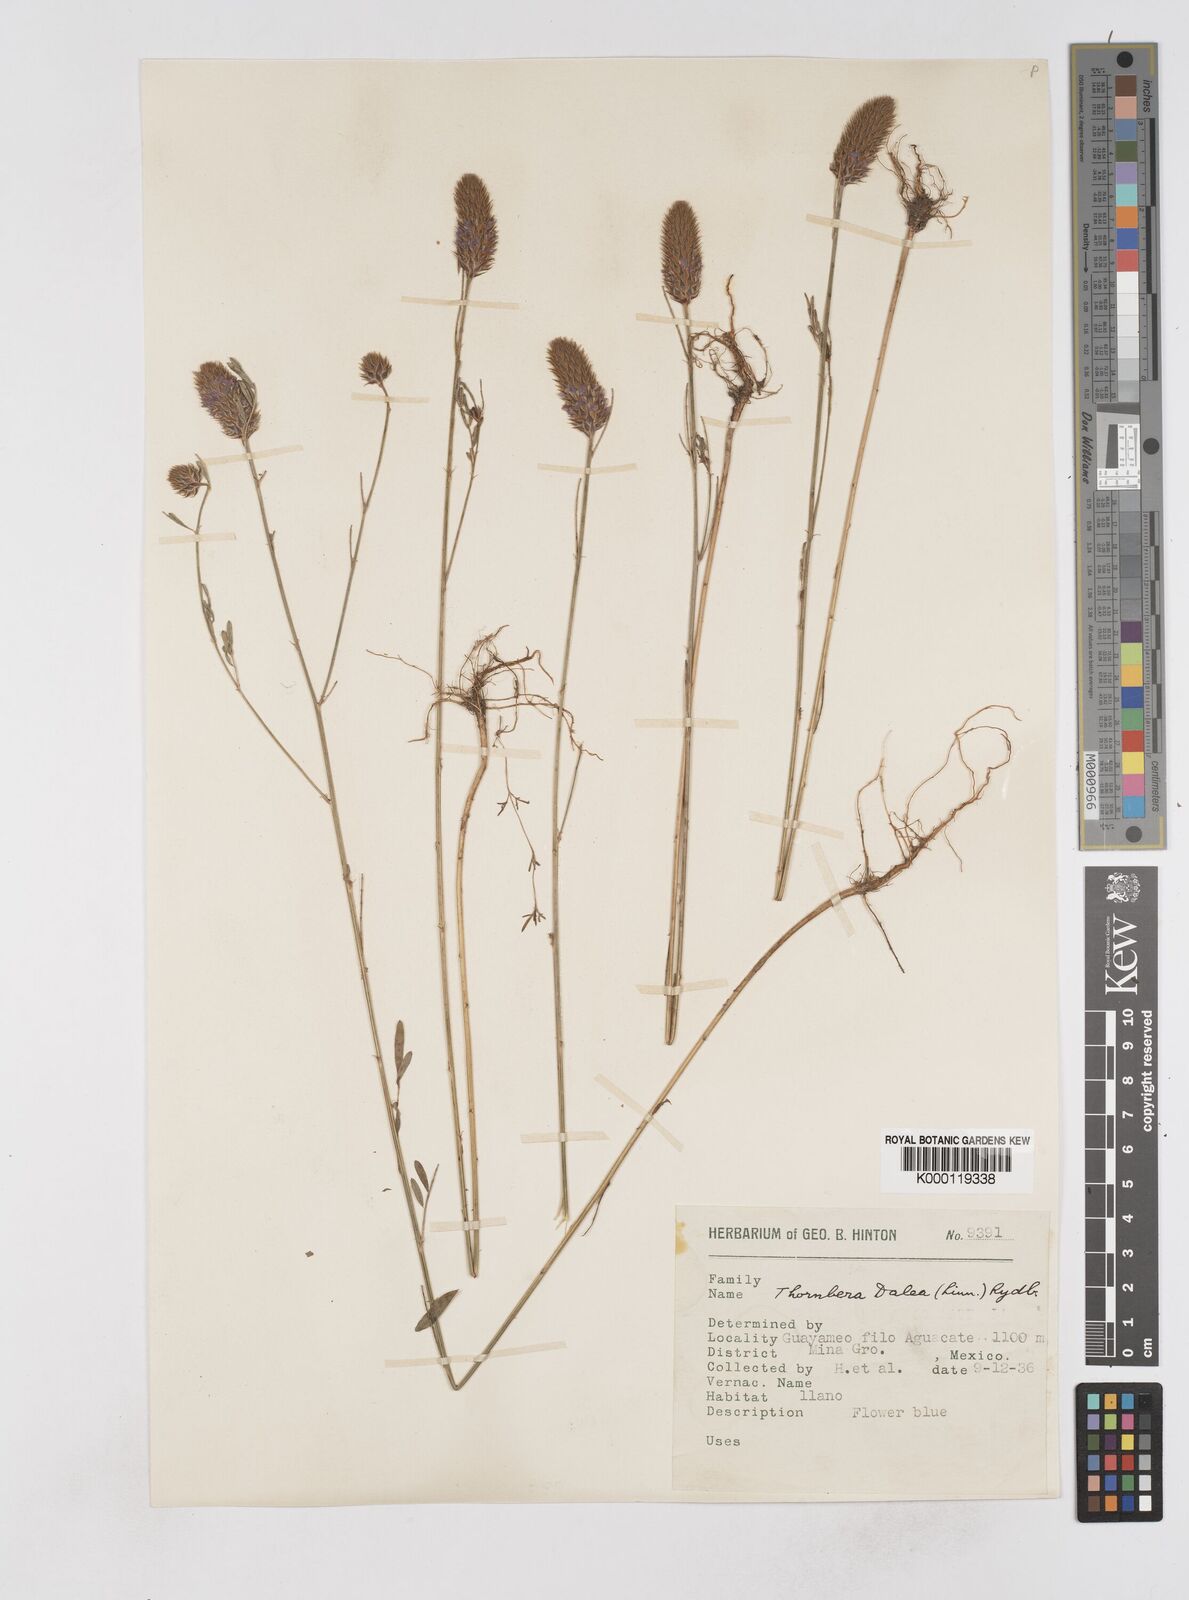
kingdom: Plantae
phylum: Tracheophyta
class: Magnoliopsida
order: Fabales
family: Fabaceae
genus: Dalea
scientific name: Dalea cliffortiana
